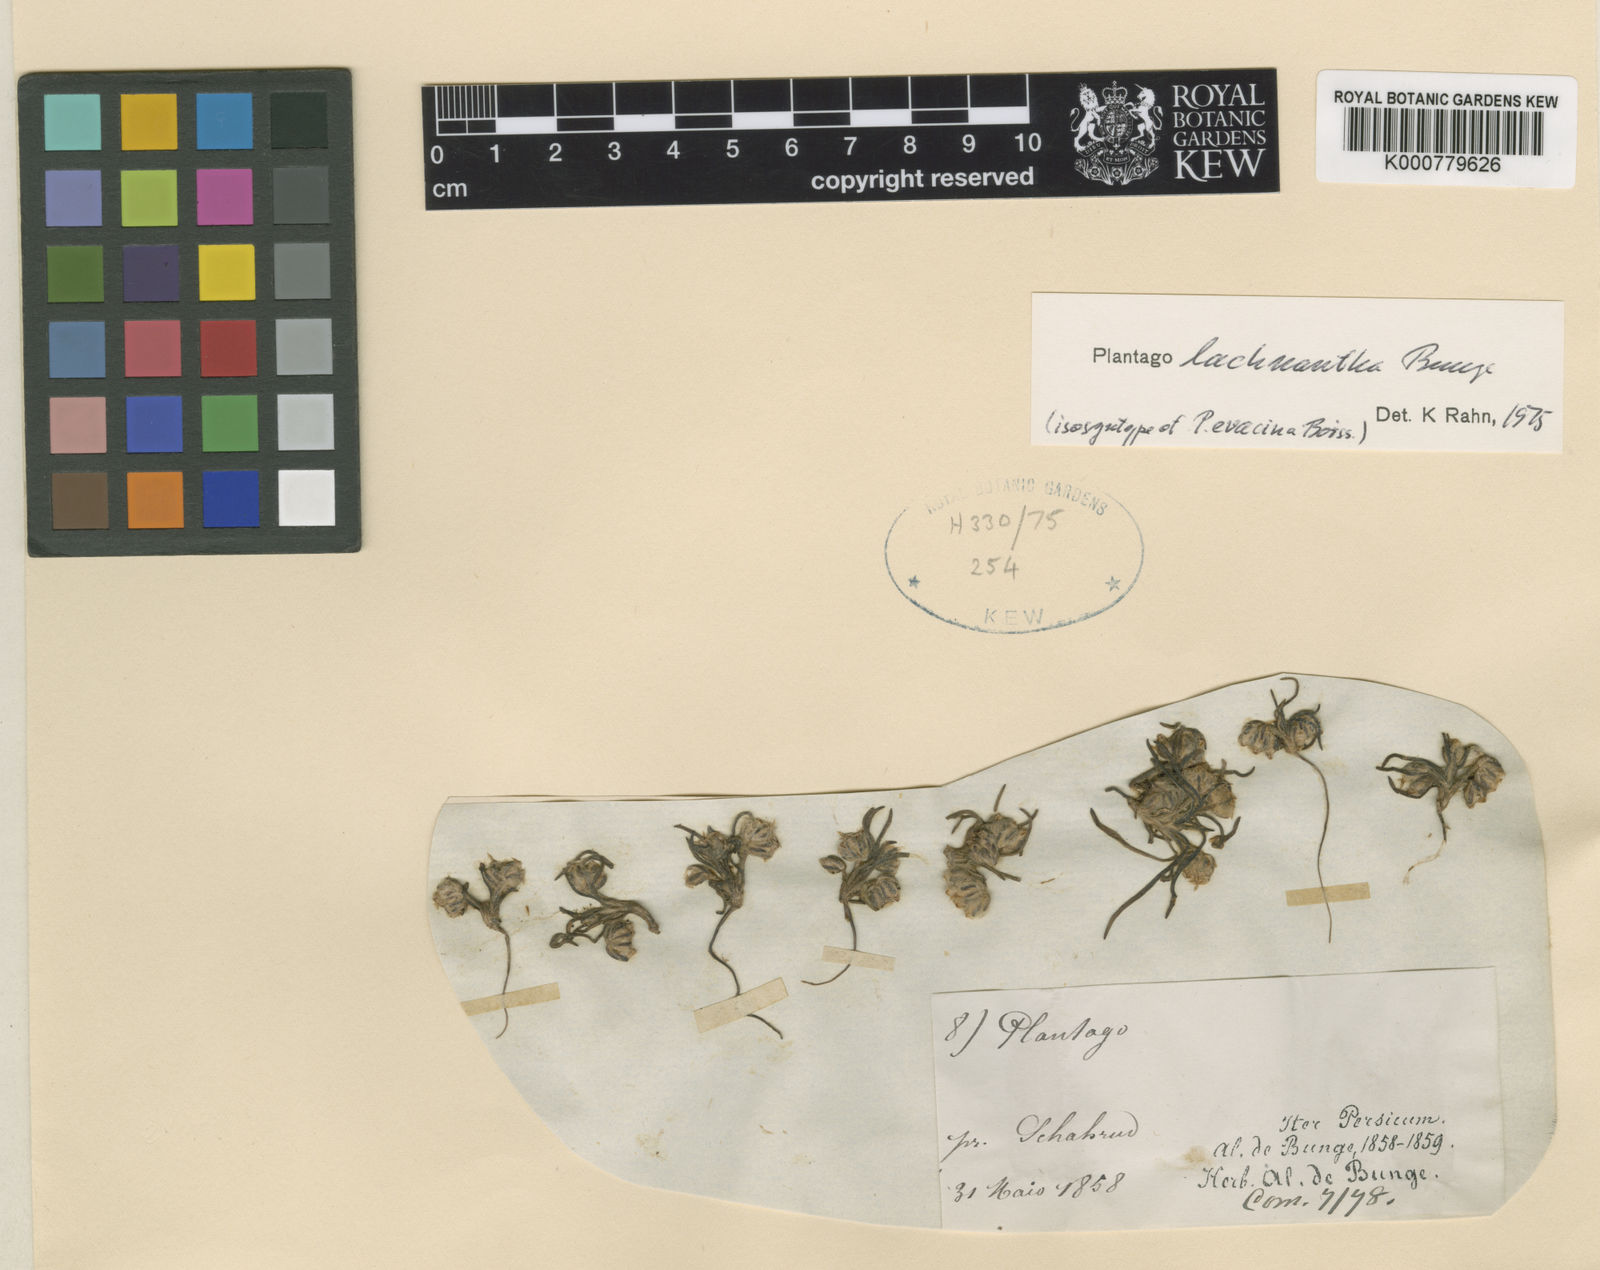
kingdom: Plantae
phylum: Tracheophyta
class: Magnoliopsida
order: Lamiales
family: Plantaginaceae
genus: Plantago
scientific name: Plantago lachnantha
